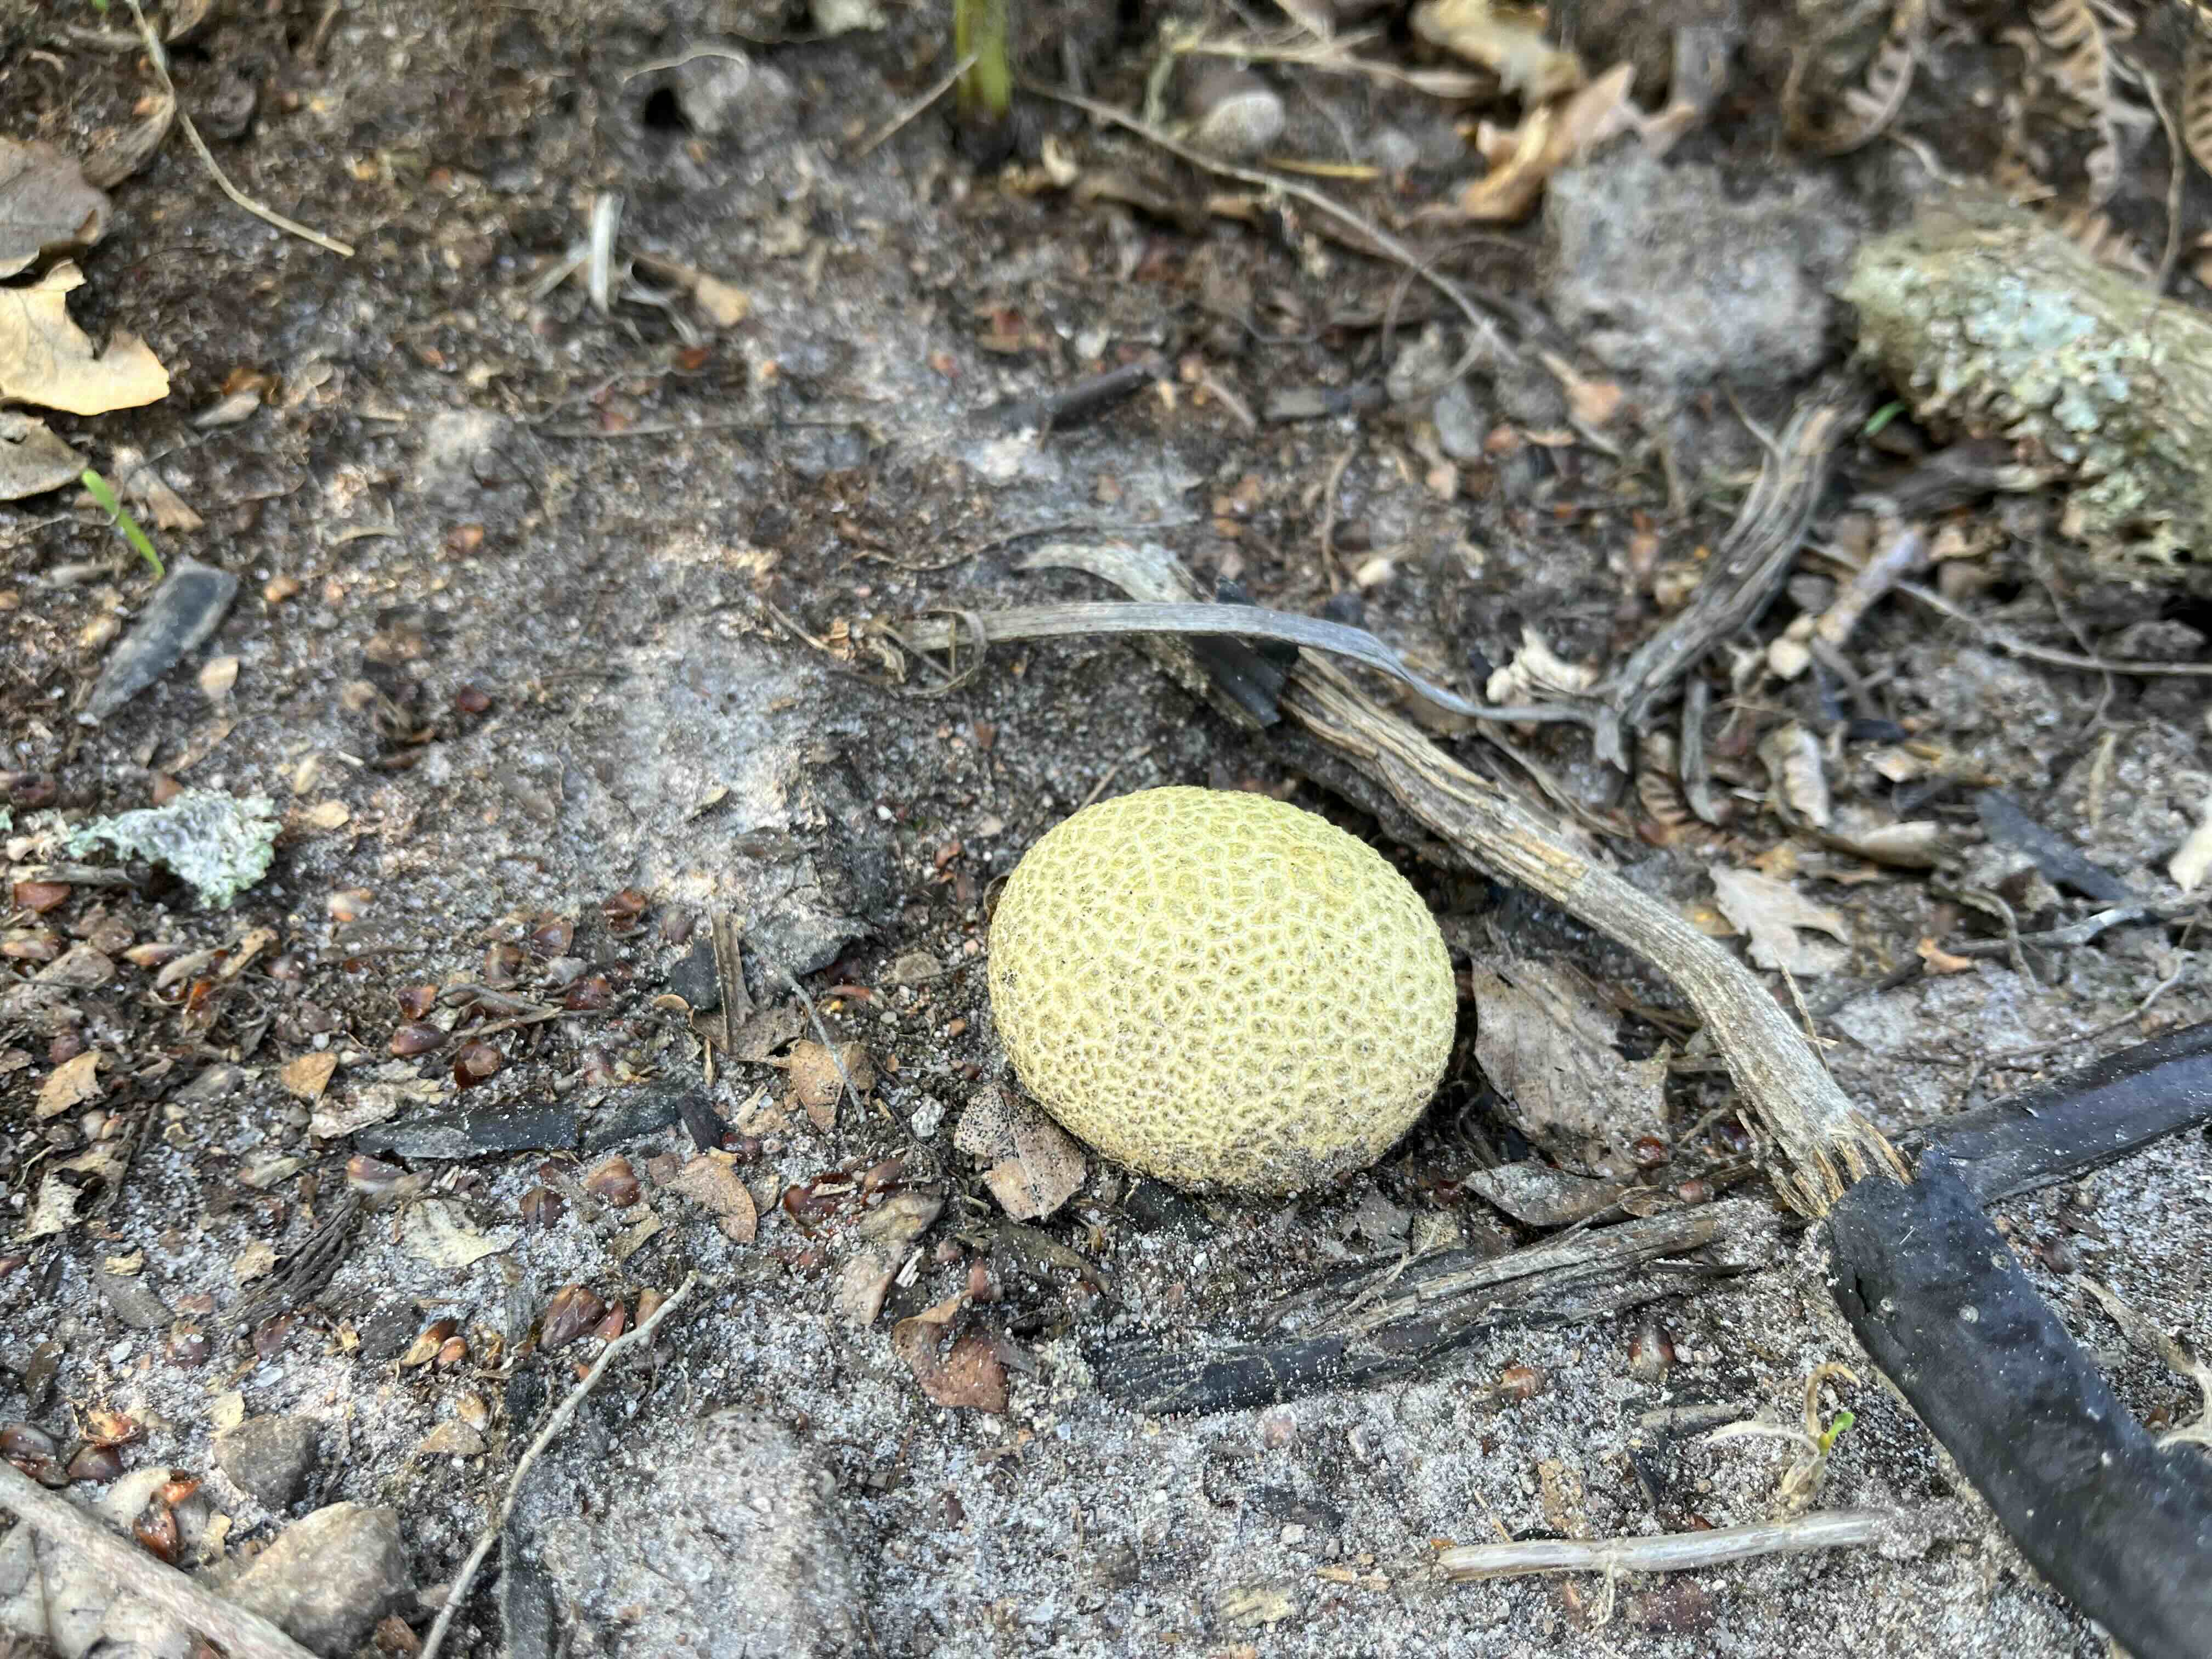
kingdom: Fungi
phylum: Basidiomycota
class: Agaricomycetes
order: Boletales
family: Sclerodermataceae
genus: Scleroderma
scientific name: Scleroderma citrinum
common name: almindelig bruskbold
